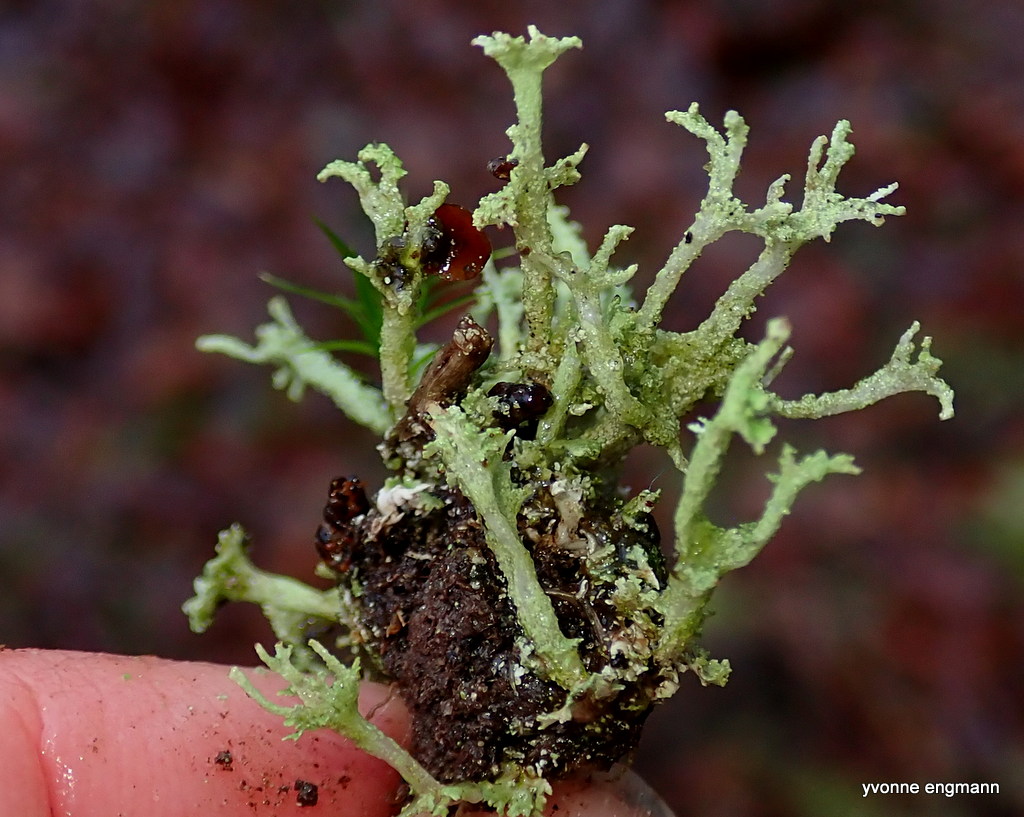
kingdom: Fungi
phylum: Ascomycota
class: Lecanoromycetes
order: Lecanorales
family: Cladoniaceae
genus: Cladonia
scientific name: Cladonia ramulosa
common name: kliddet bægerlav
